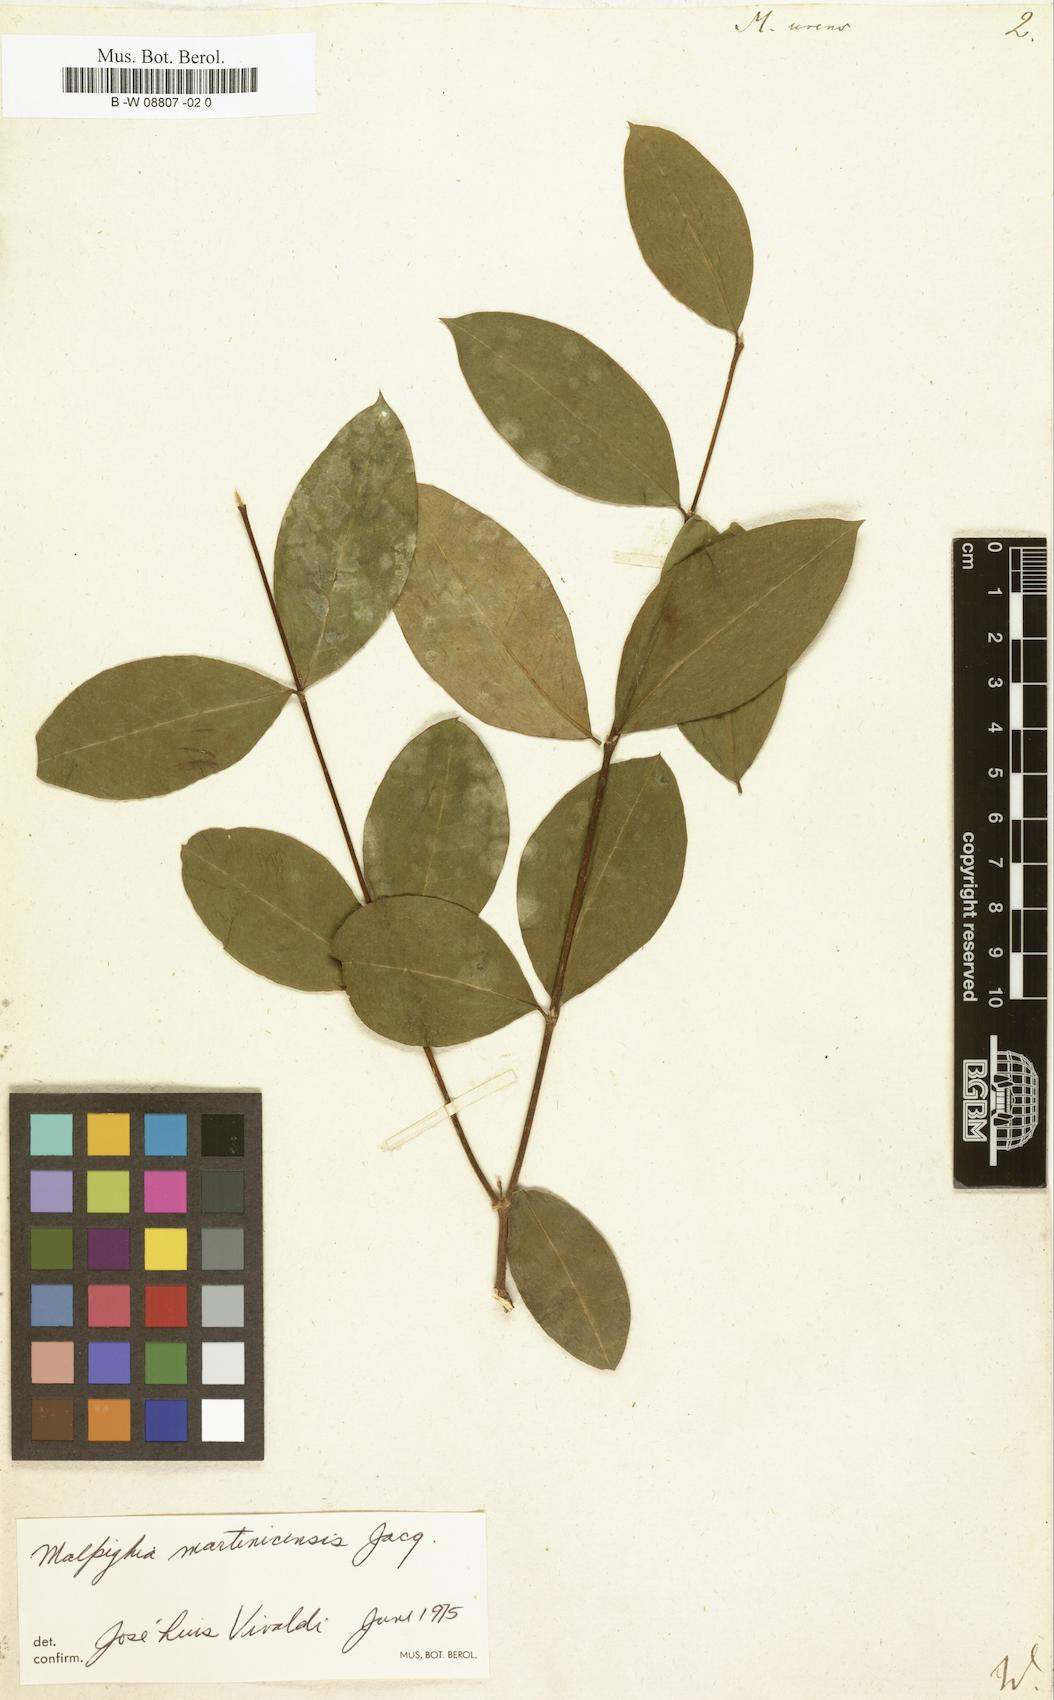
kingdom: Plantae
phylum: Tracheophyta
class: Magnoliopsida
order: Malpighiales
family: Malpighiaceae
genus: Malpighia
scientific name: Malpighia urens
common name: Cow-itch-cherry
